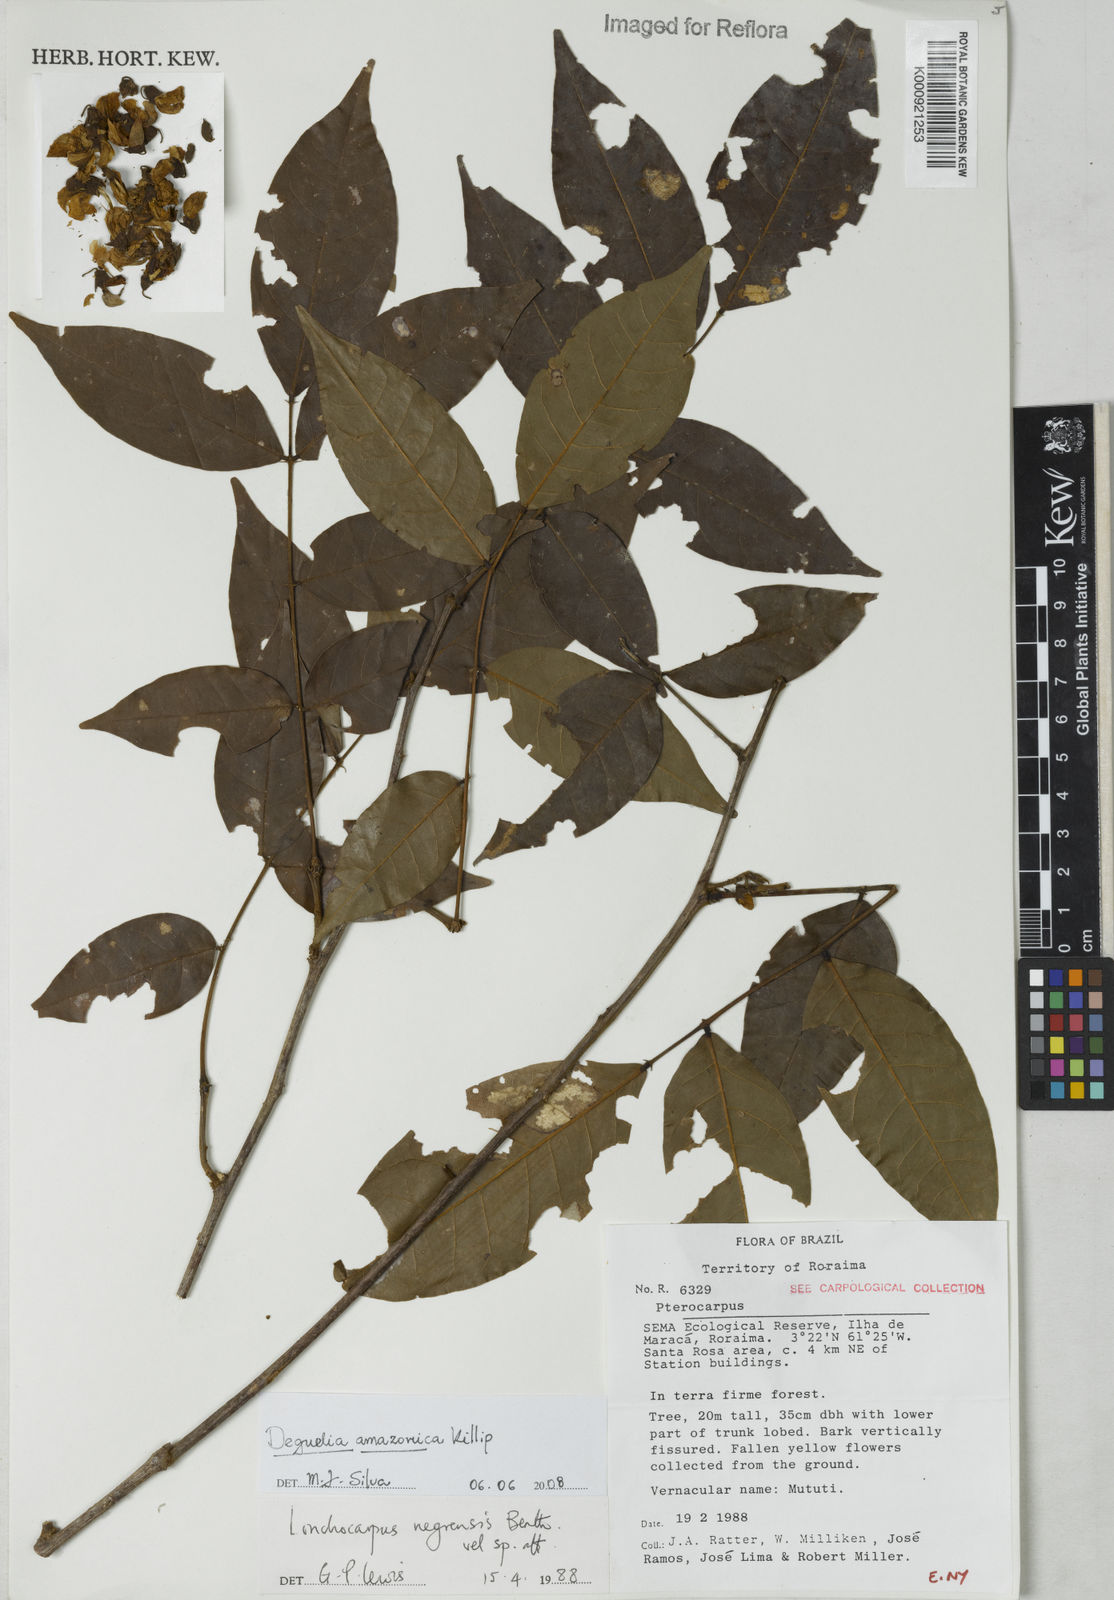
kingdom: Plantae
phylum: Tracheophyta
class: Magnoliopsida
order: Fabales
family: Fabaceae
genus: Deguelia
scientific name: Deguelia amazonica
